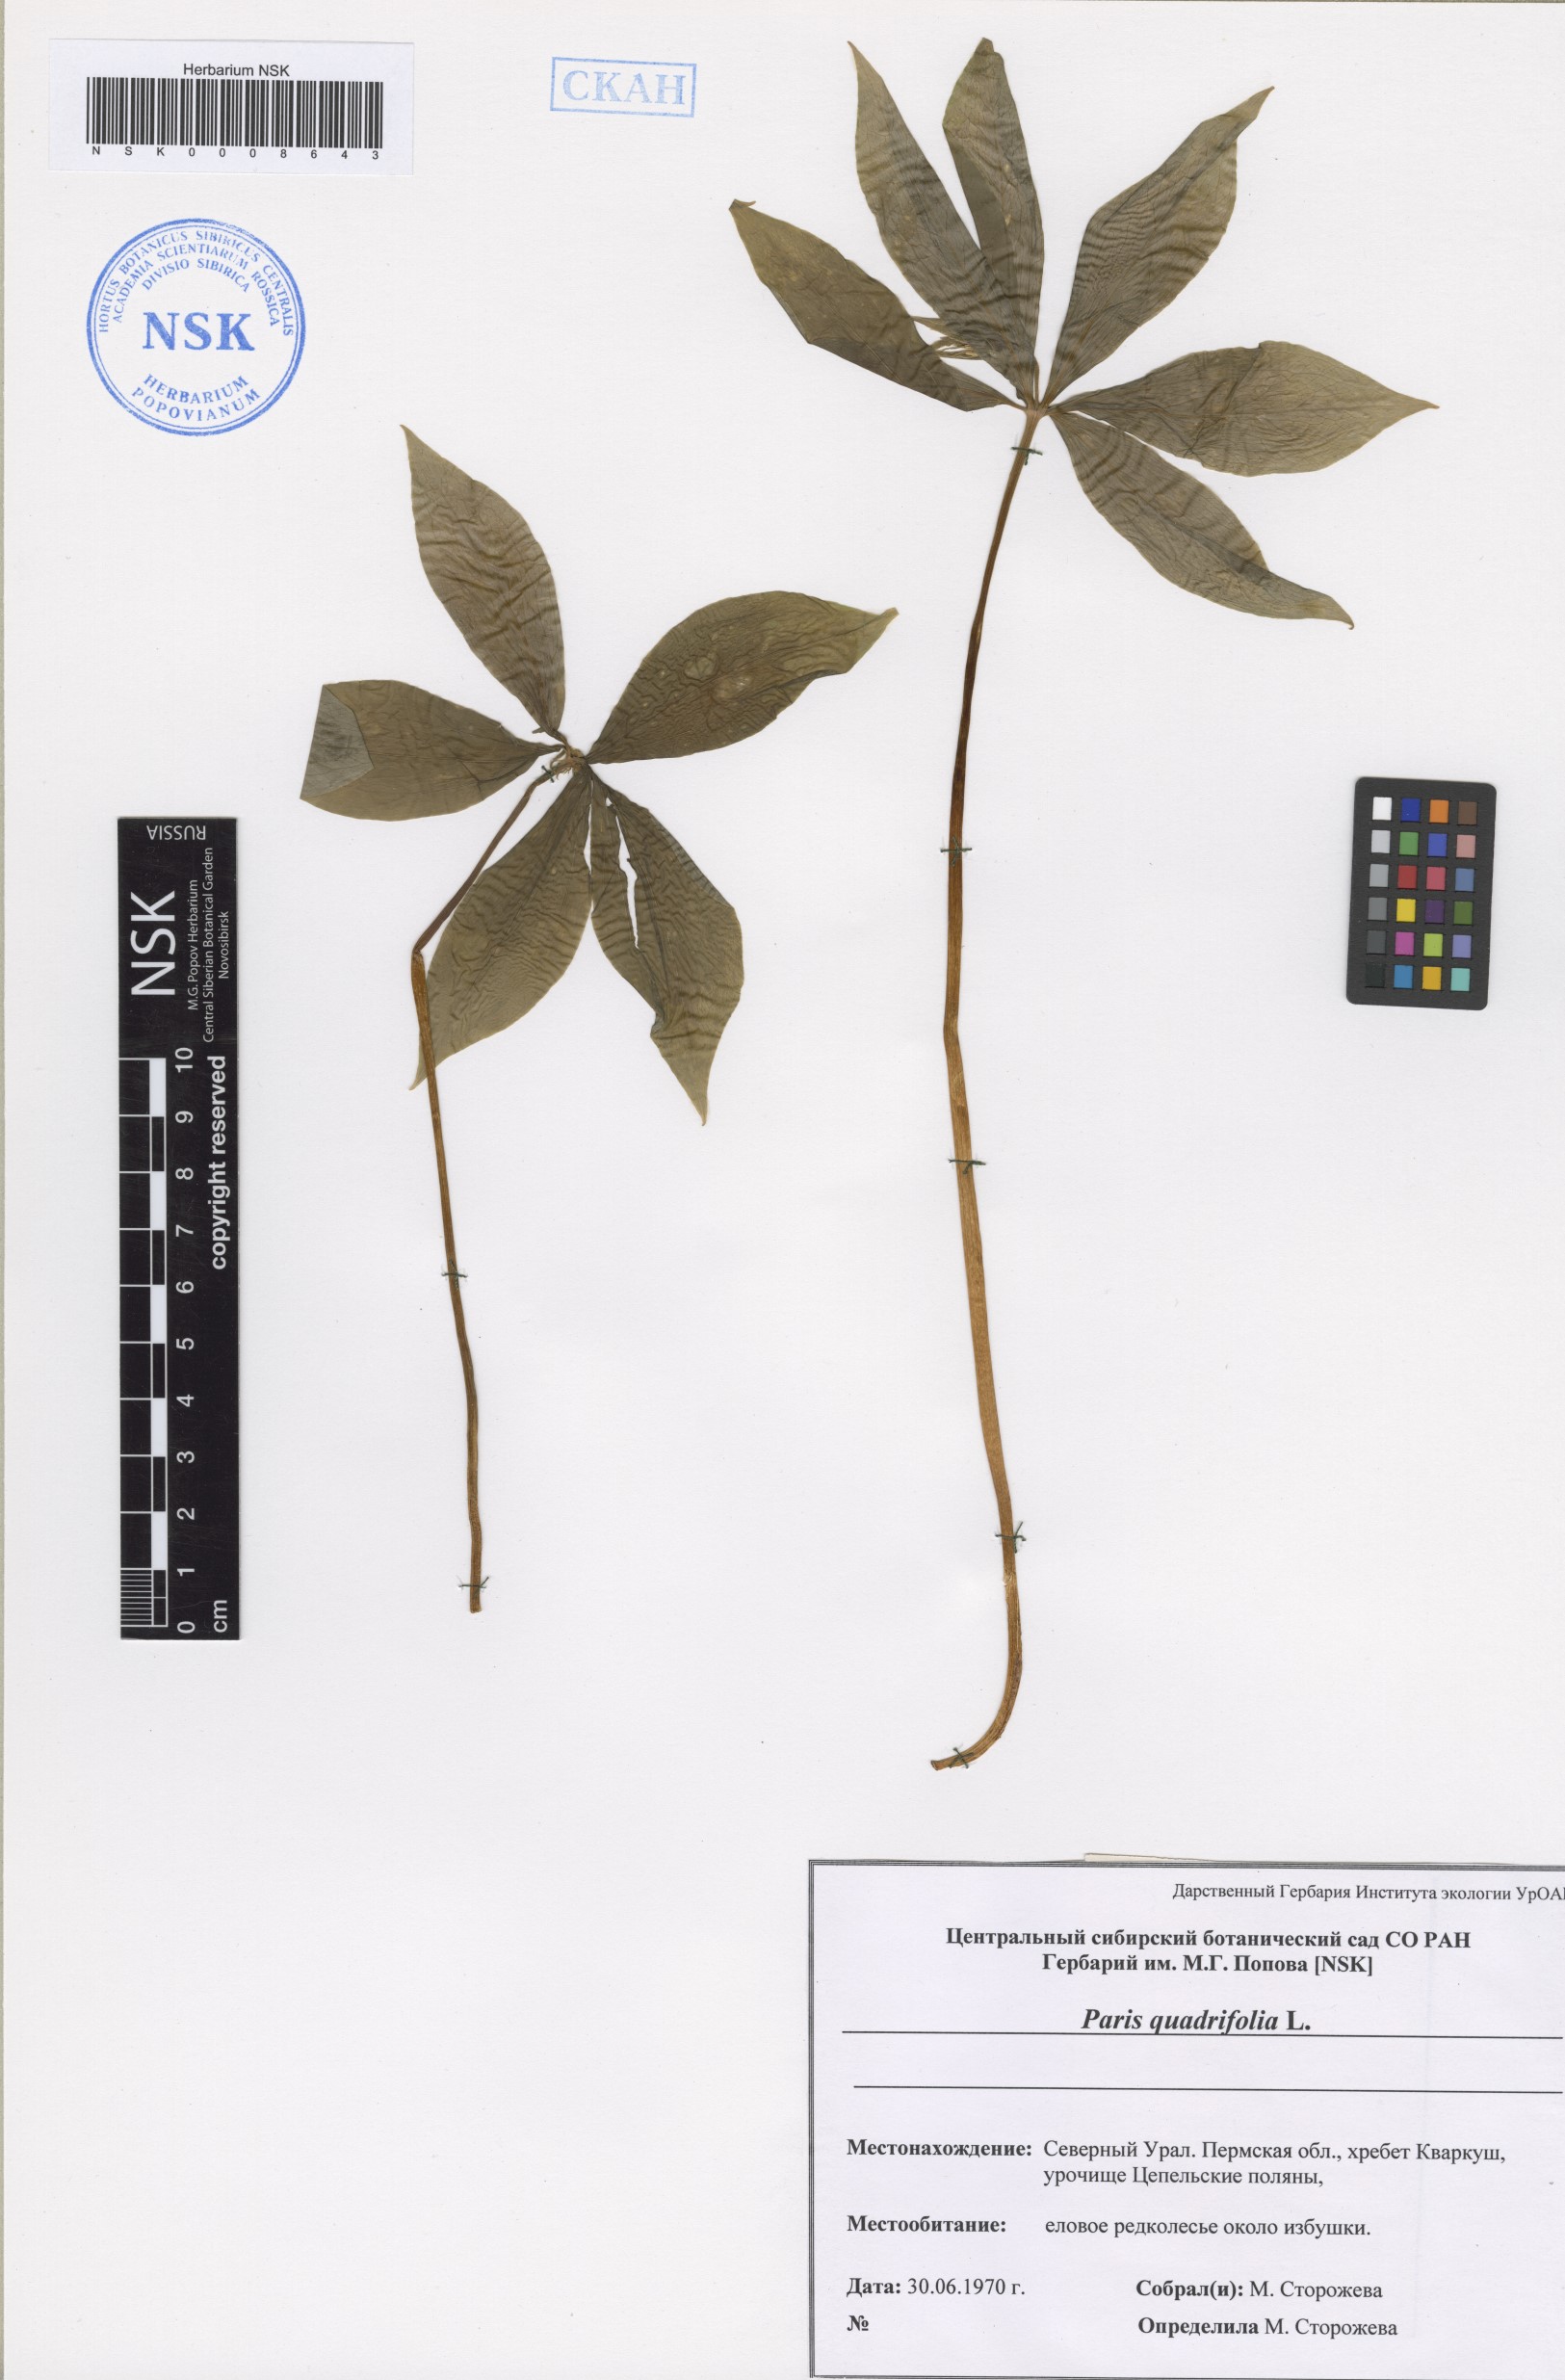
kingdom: Plantae
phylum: Tracheophyta
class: Liliopsida
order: Liliales
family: Melanthiaceae
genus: Paris
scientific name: Paris quadrifolia
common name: Herb-paris
